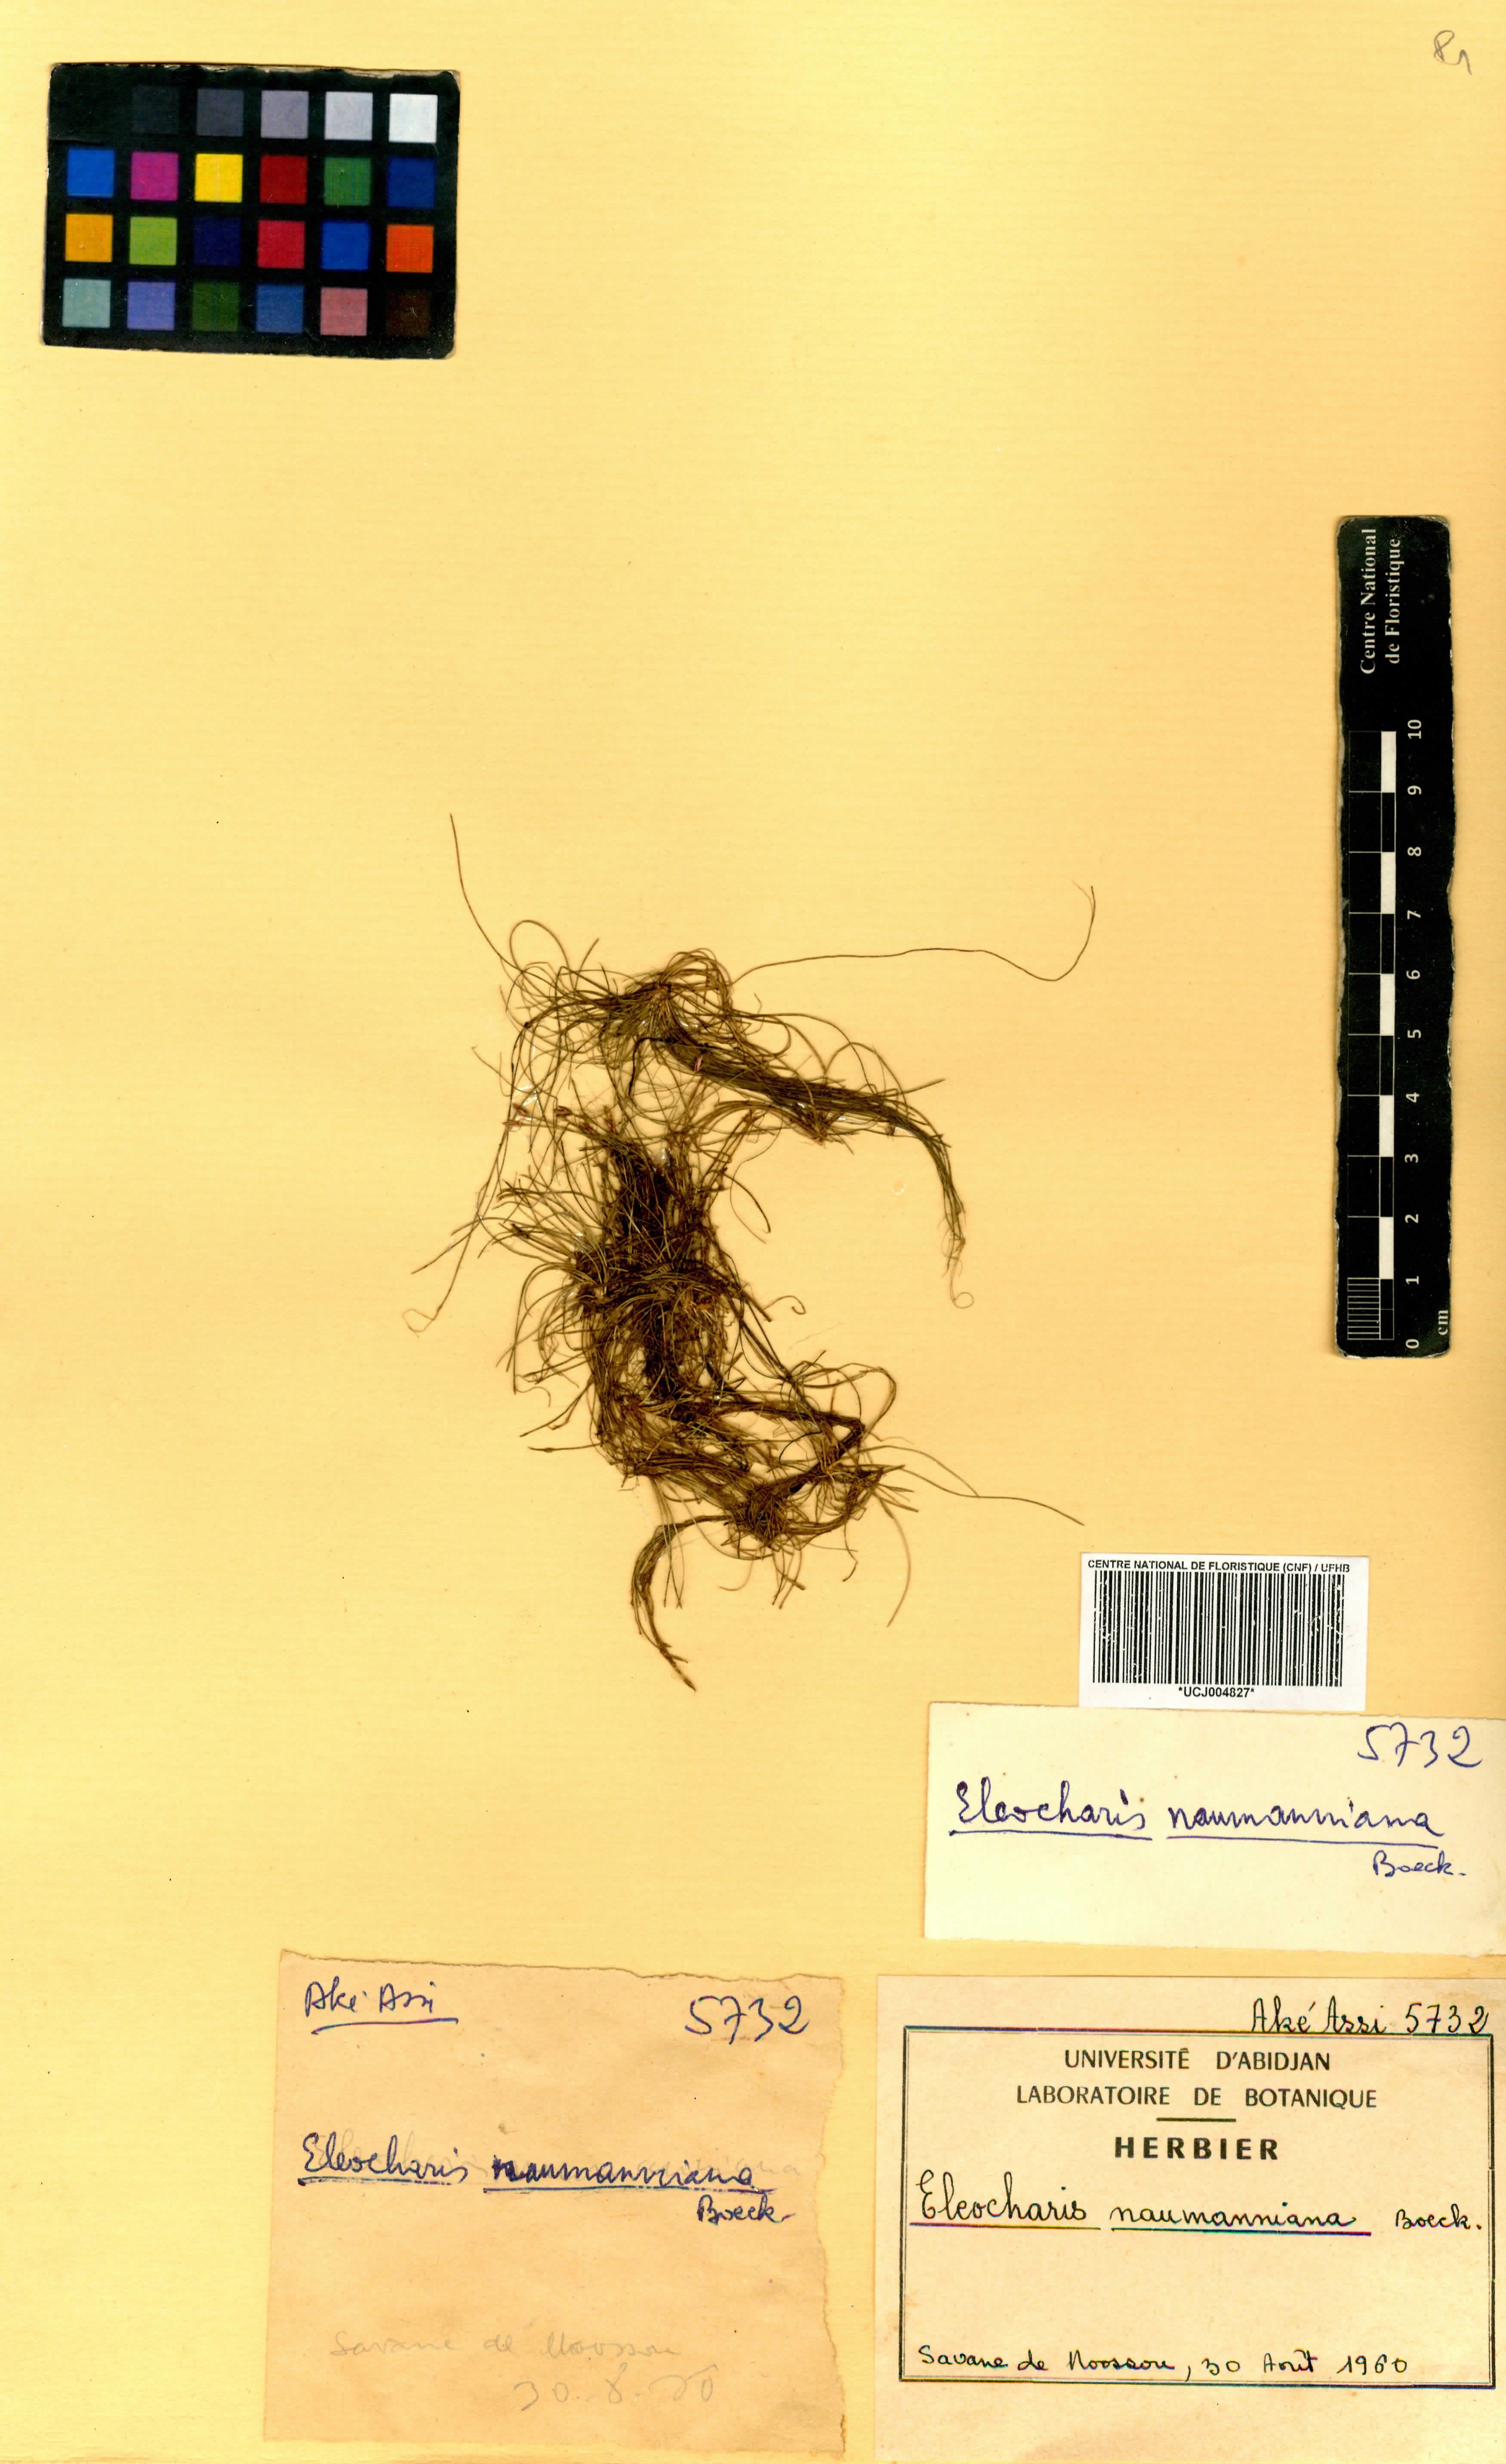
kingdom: Plantae
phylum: Tracheophyta
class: Liliopsida
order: Poales
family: Cyperaceae
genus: Eleocharis
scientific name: Eleocharis naumanniana
